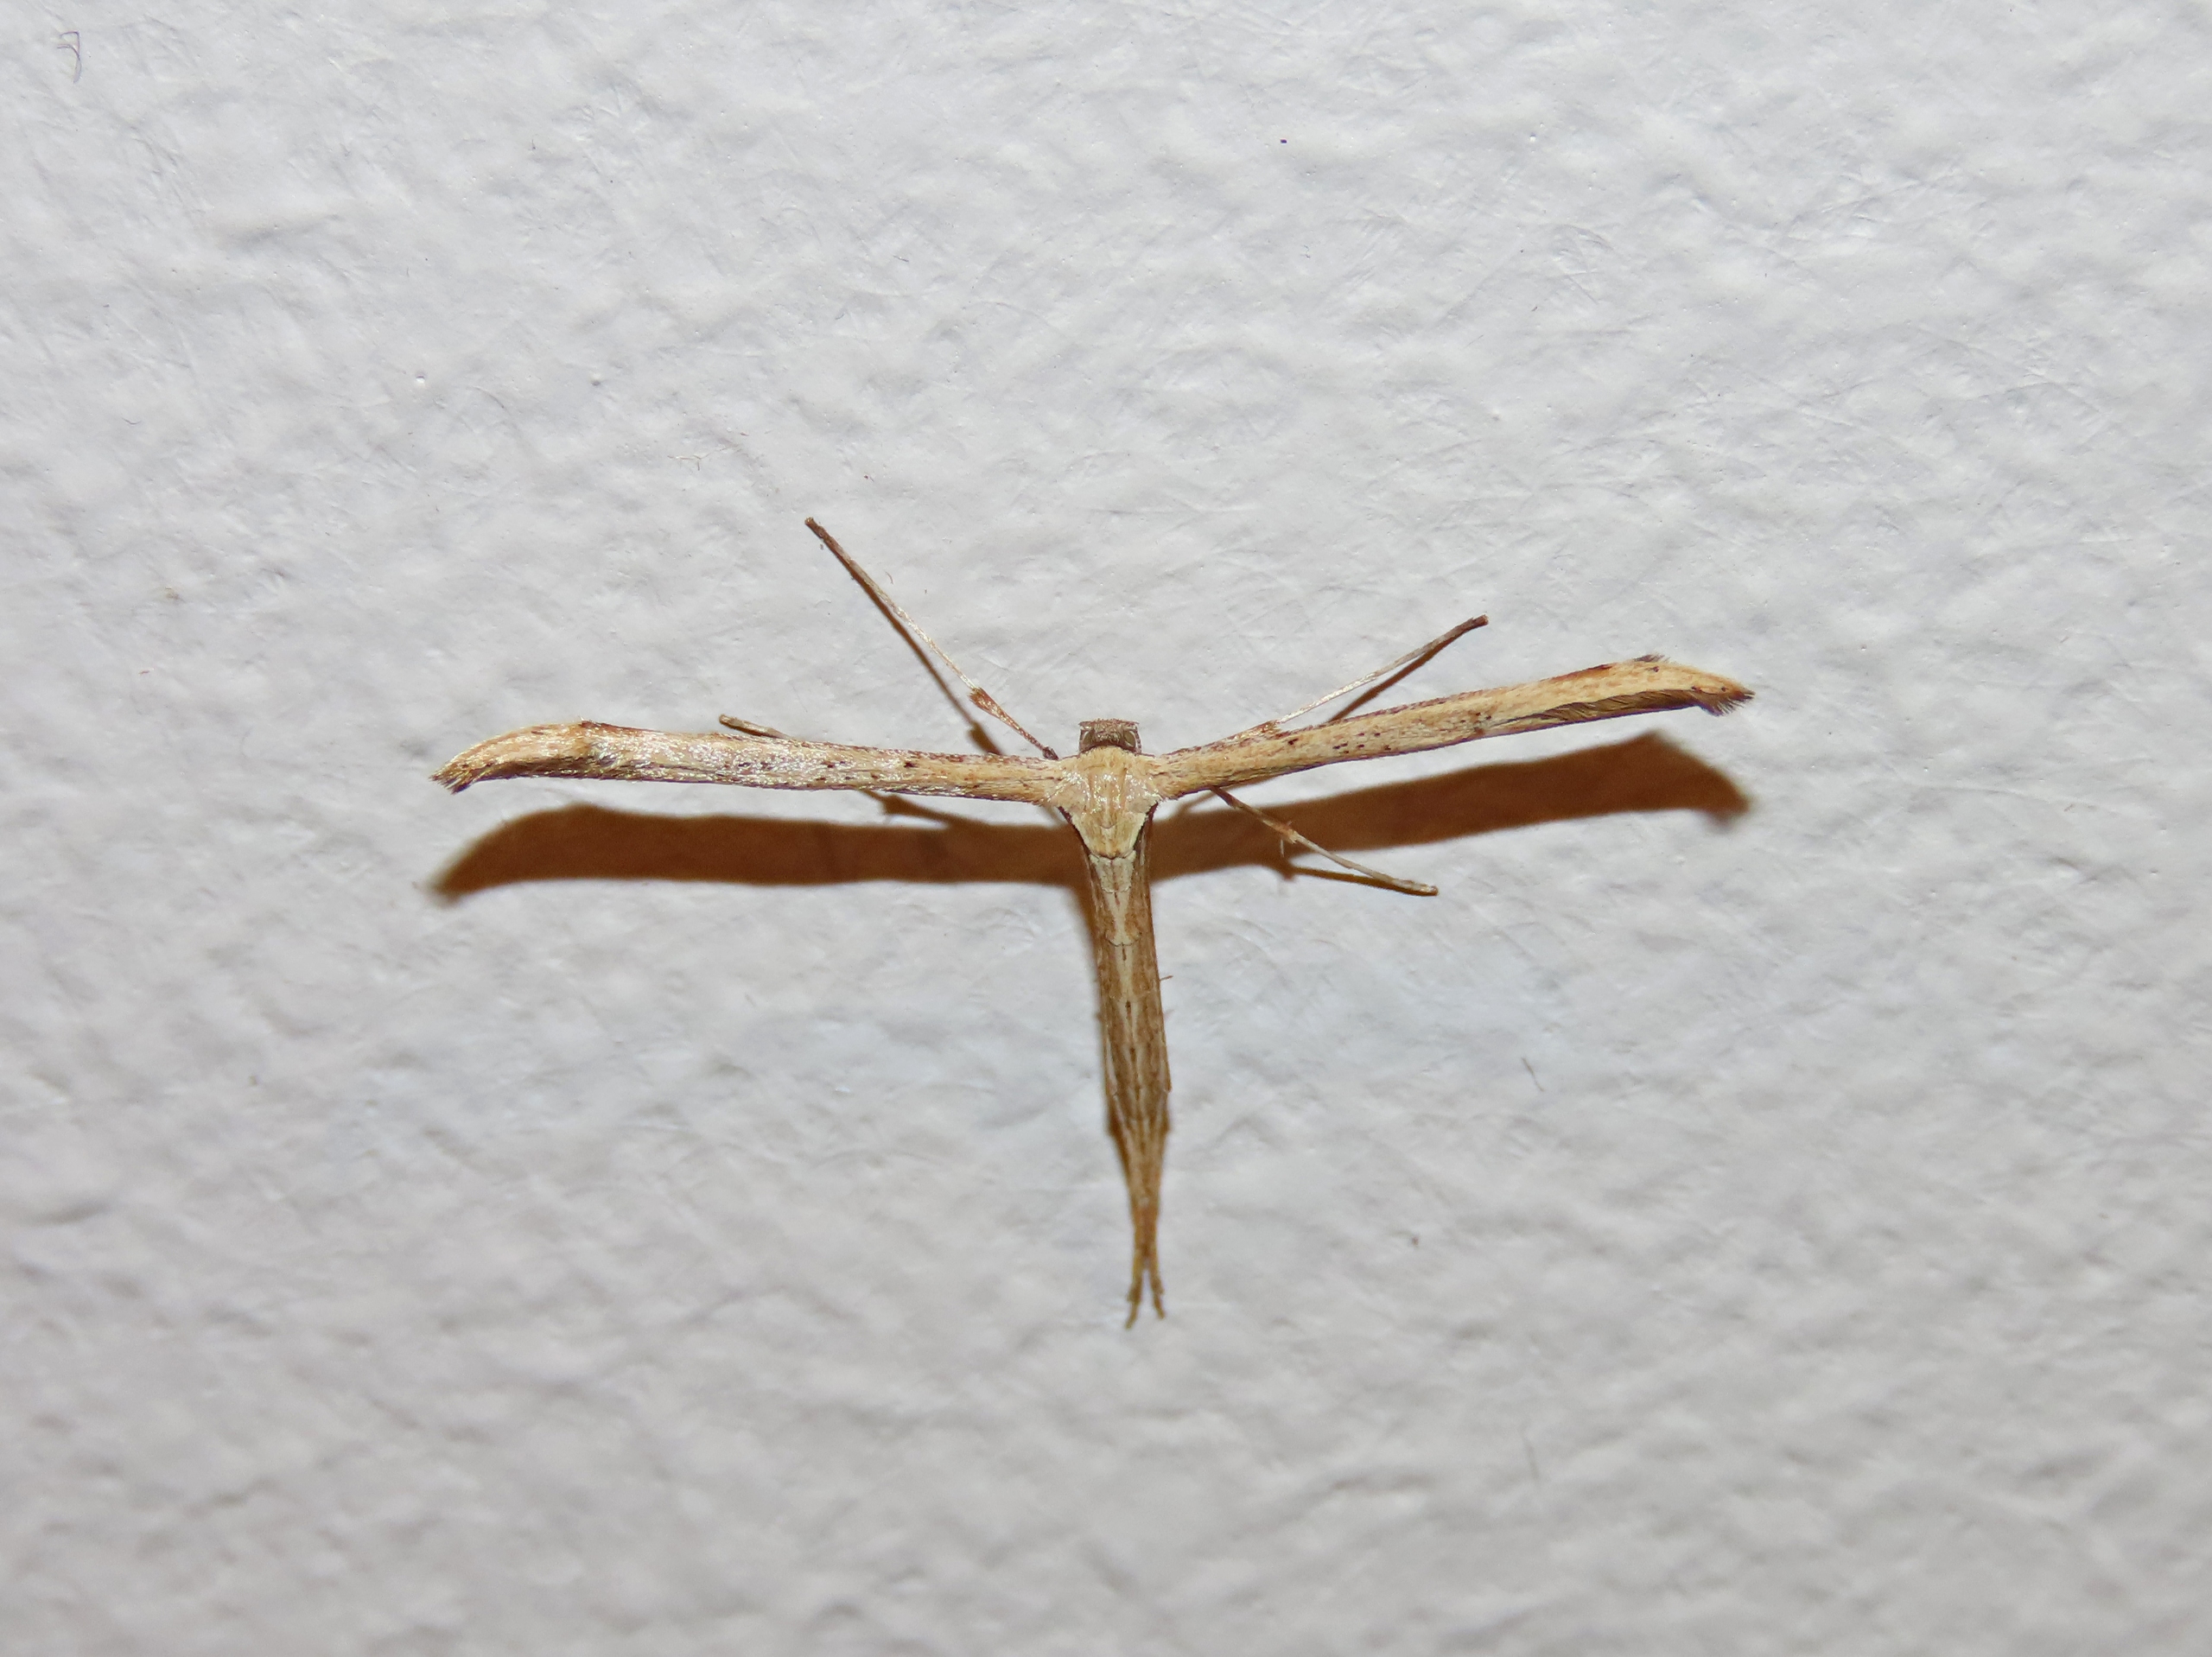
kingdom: Animalia
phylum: Arthropoda
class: Insecta
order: Lepidoptera
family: Pterophoridae
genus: Emmelina
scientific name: Emmelina monodactyla
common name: Snerlefjermøl
